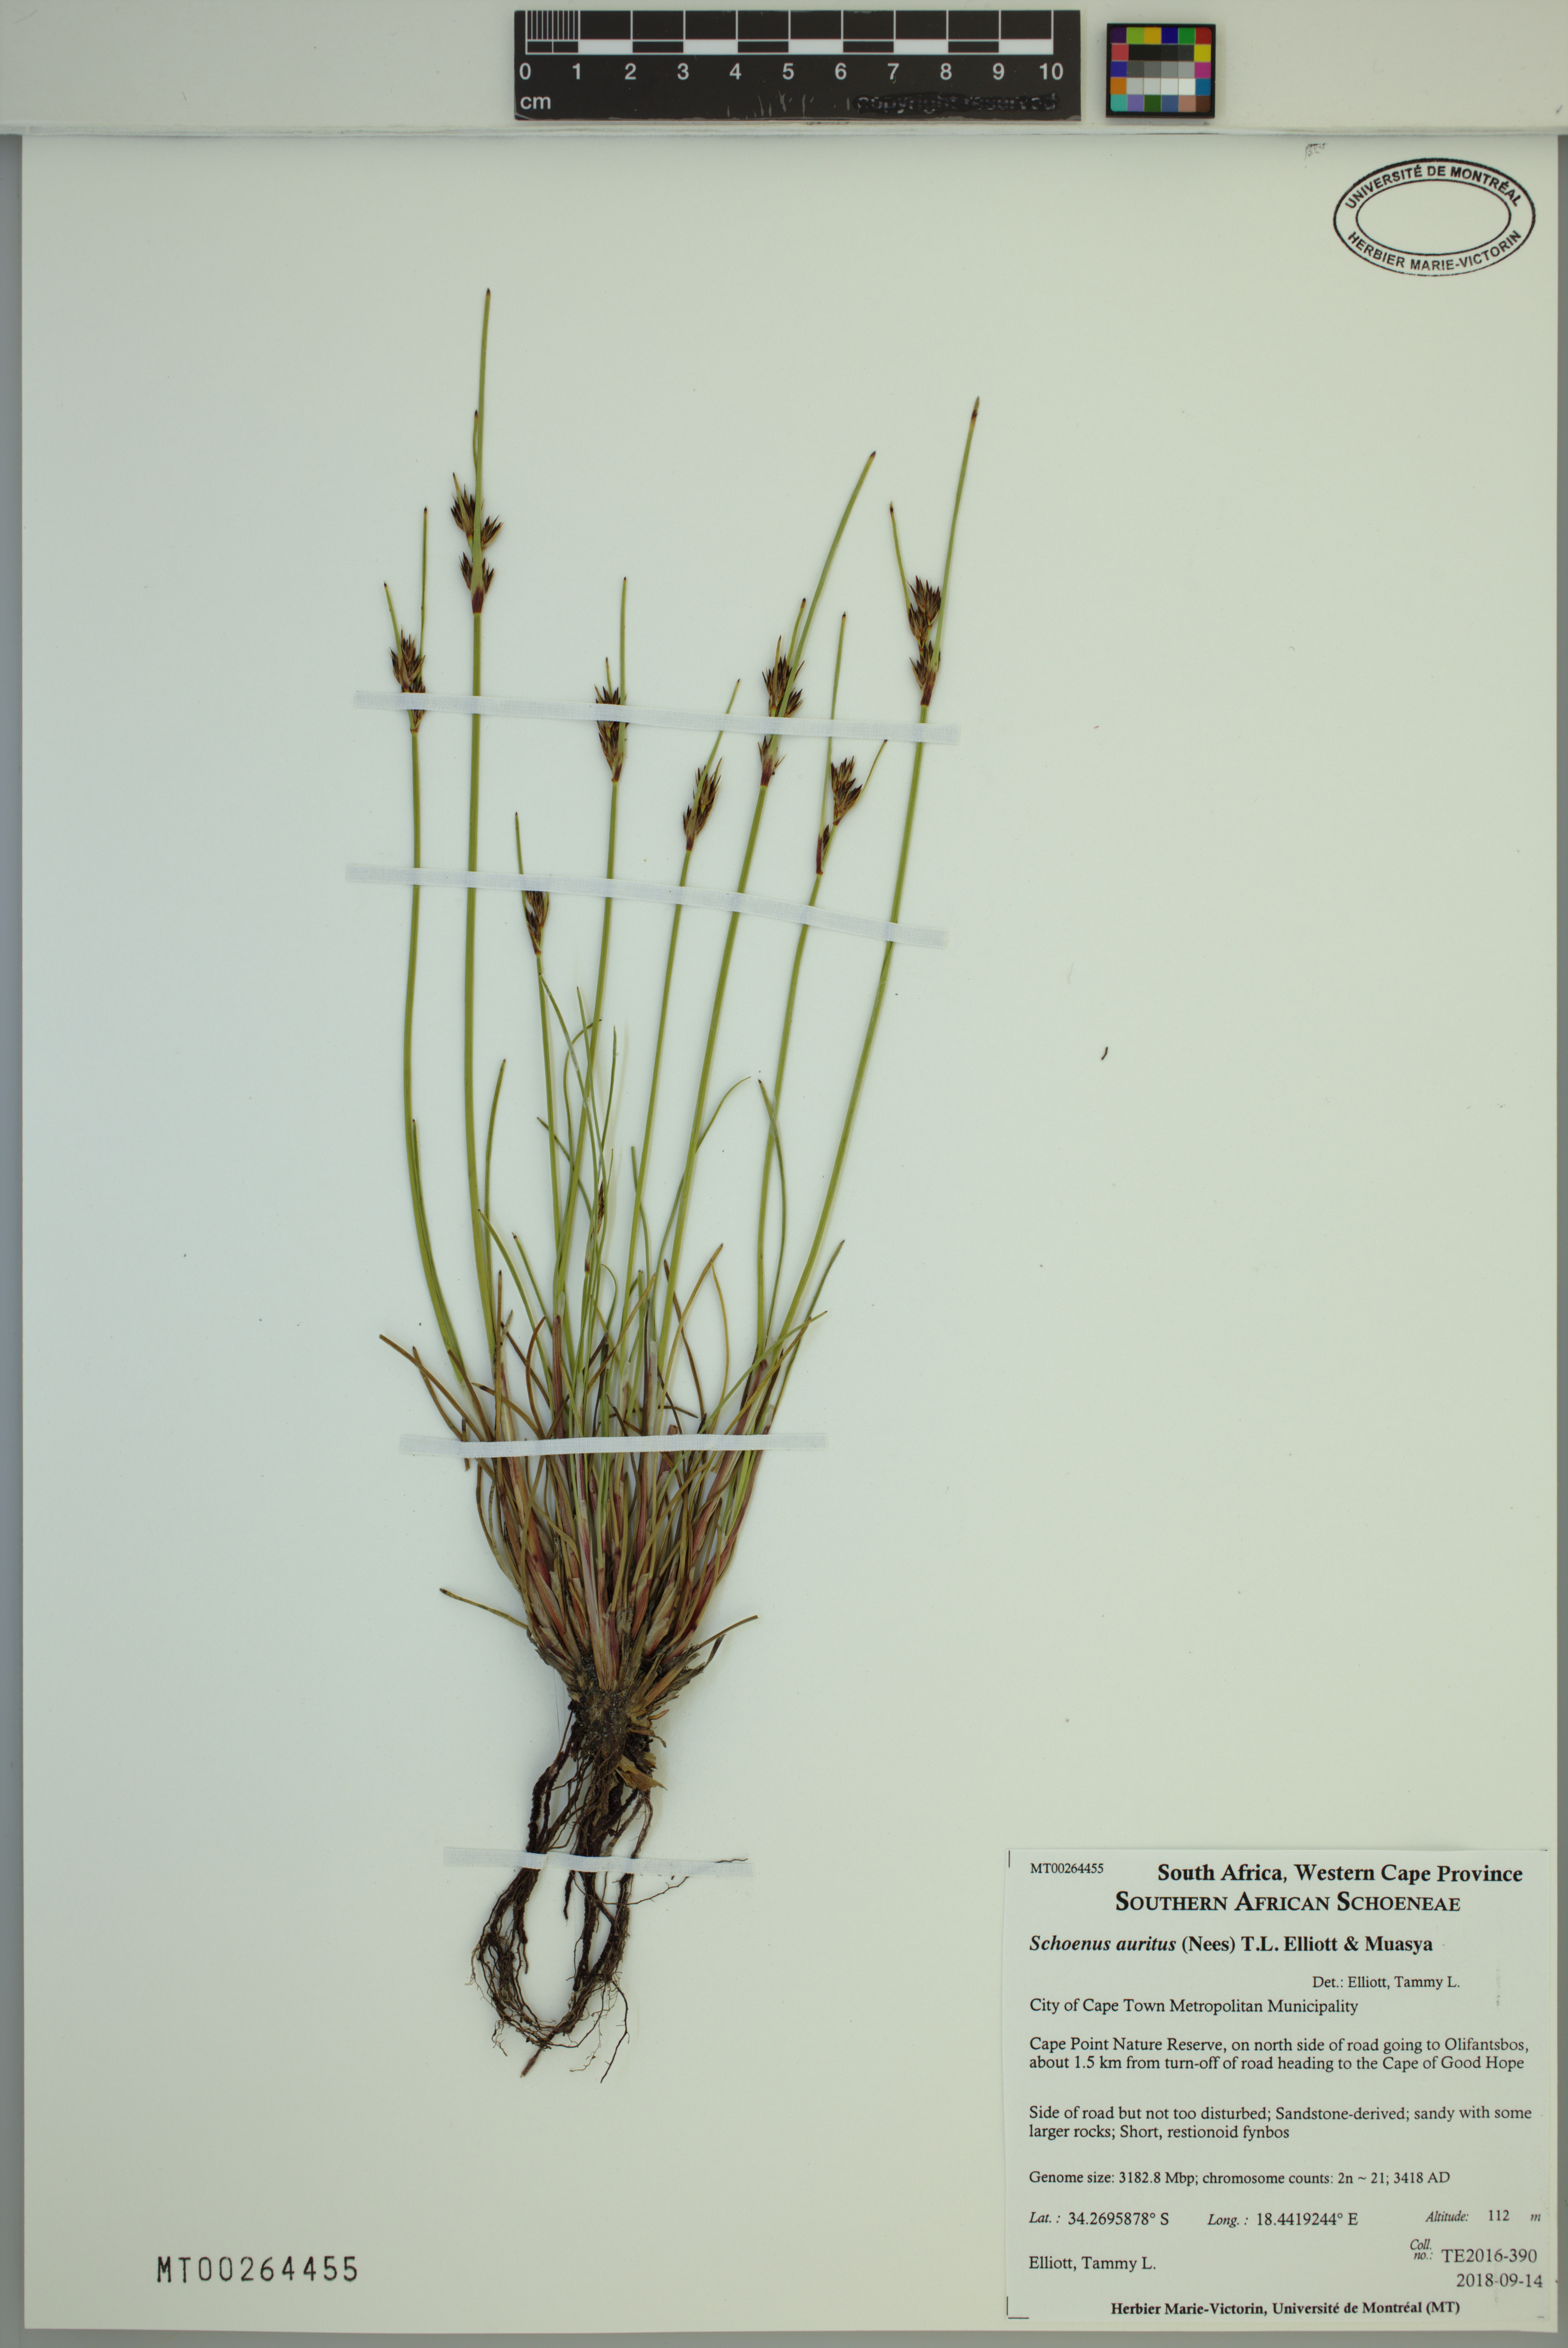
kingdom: Plantae
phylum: Tracheophyta
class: Liliopsida
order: Poales
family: Cyperaceae
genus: Schoenus
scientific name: Schoenus auritus
